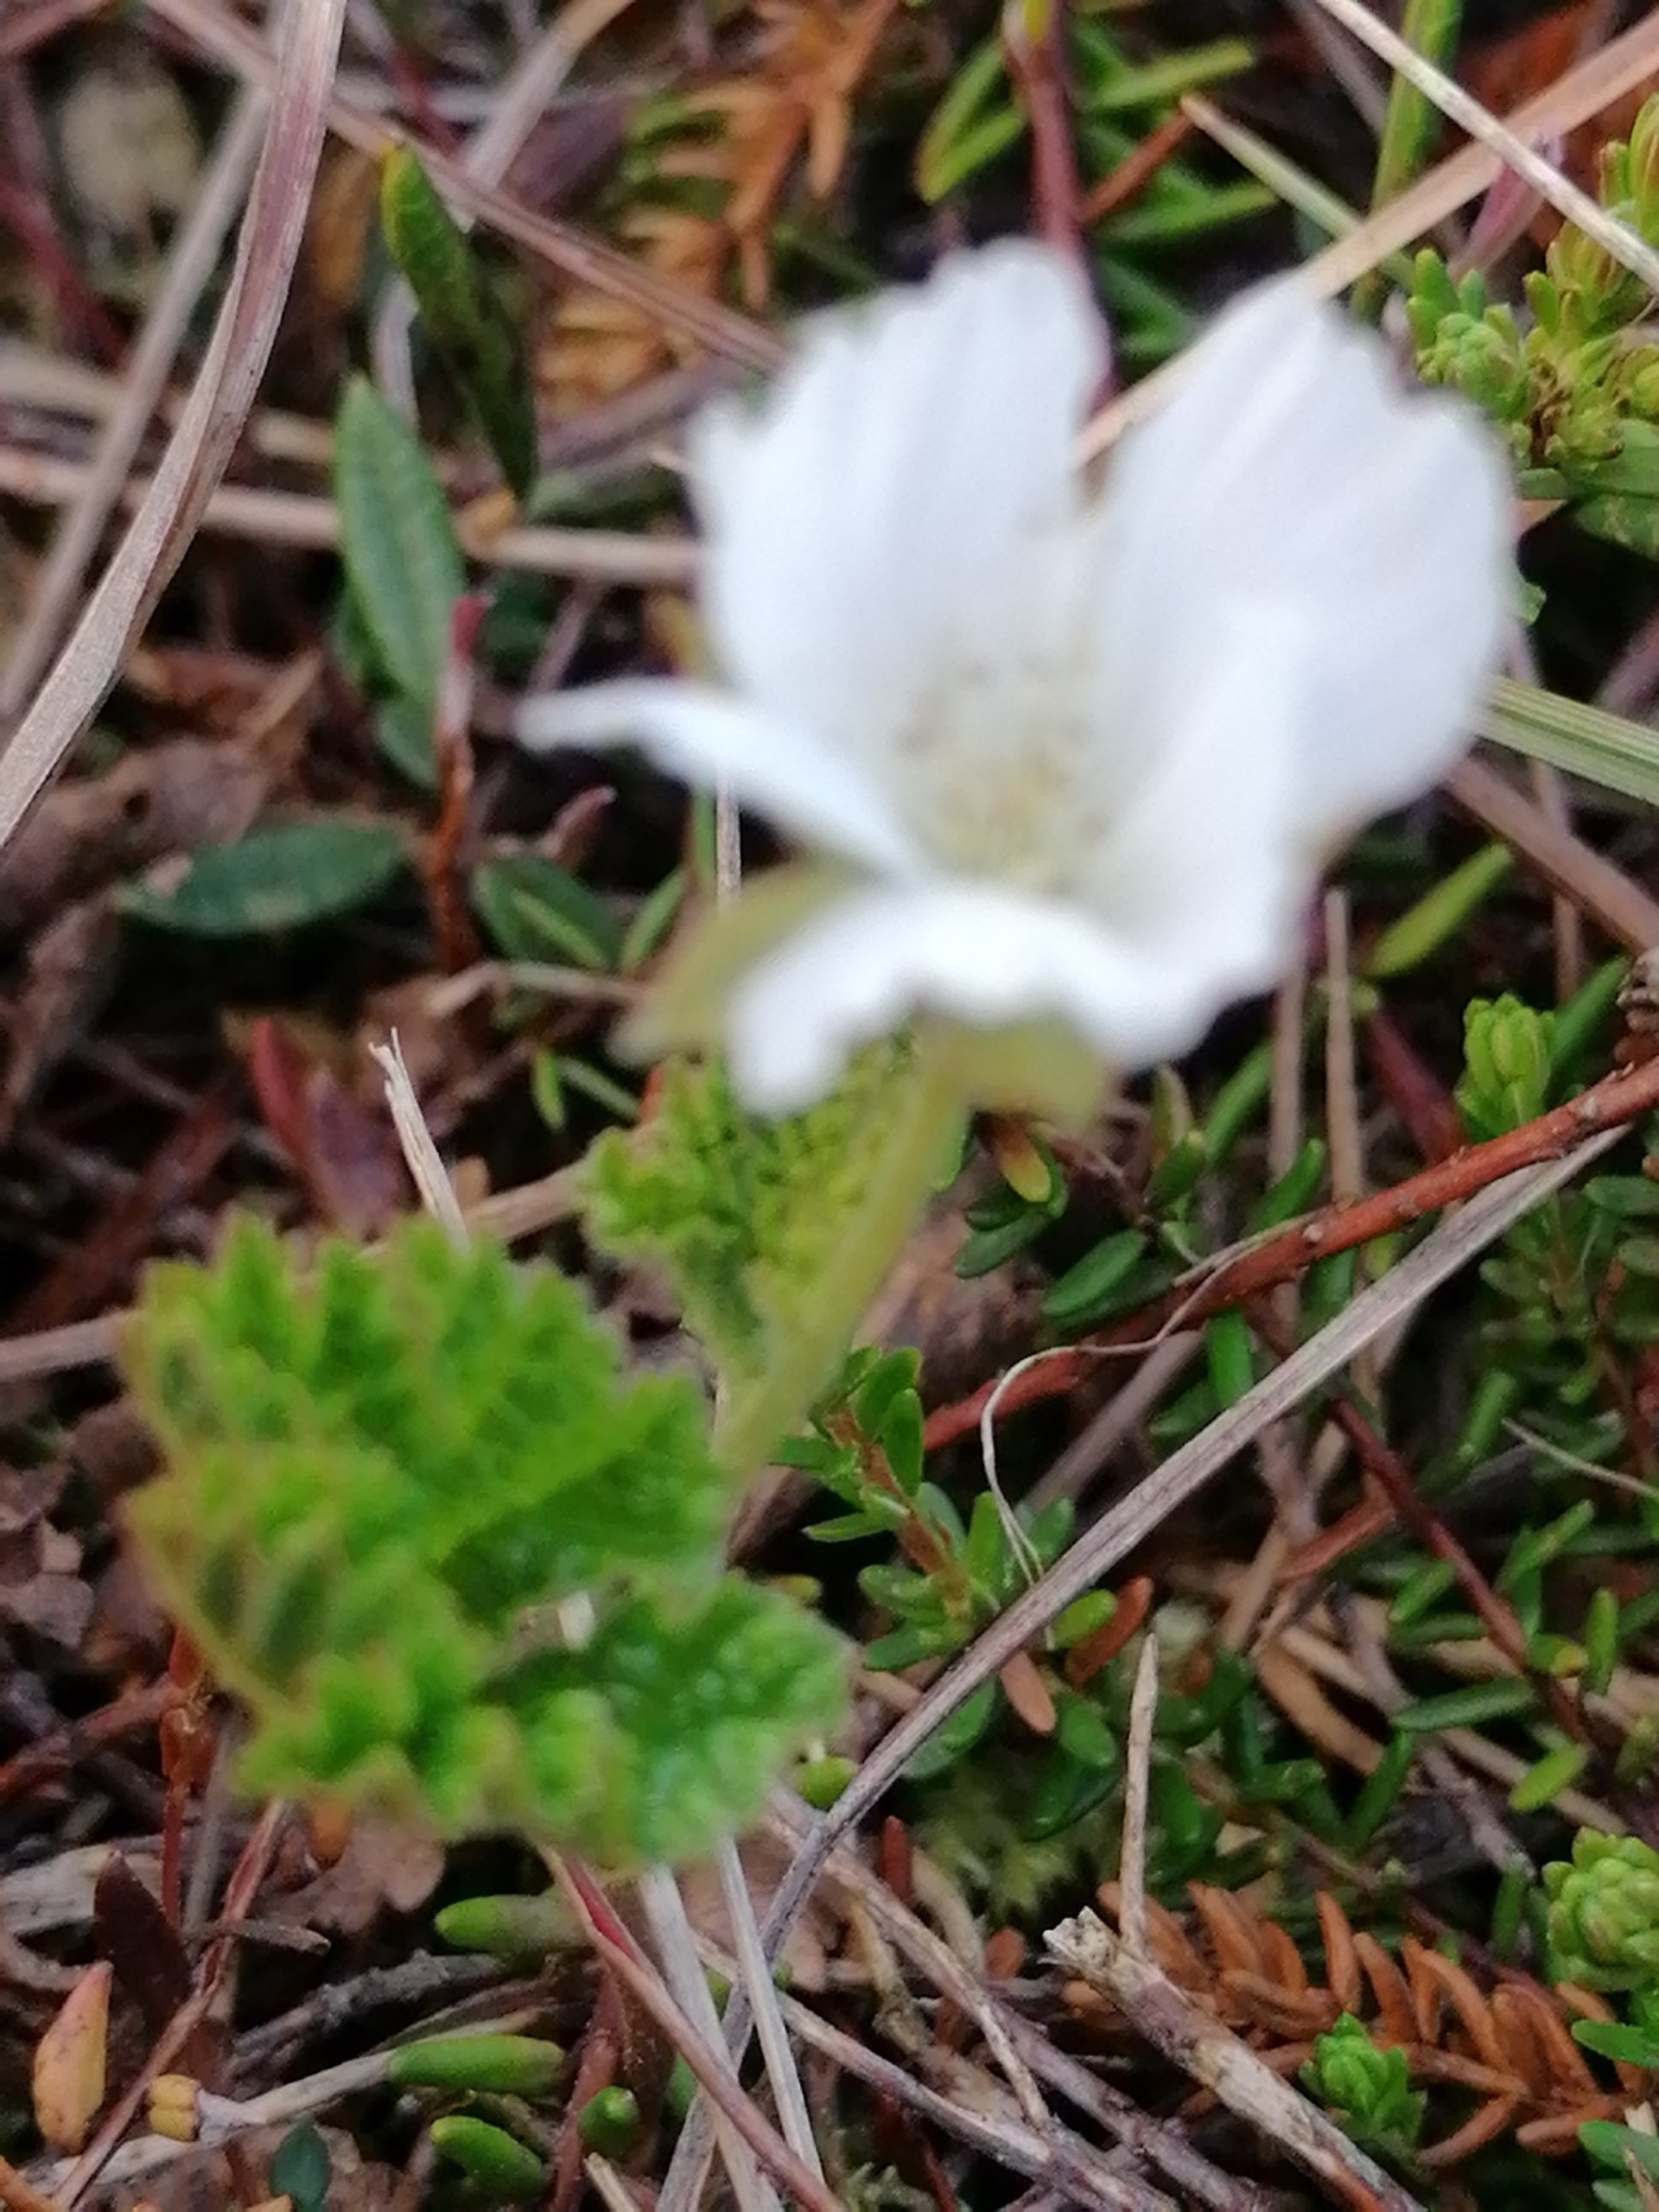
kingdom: Plantae
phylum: Tracheophyta
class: Magnoliopsida
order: Rosales
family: Rosaceae
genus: Rubus
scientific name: Rubus chamaemorus
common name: Multebær
